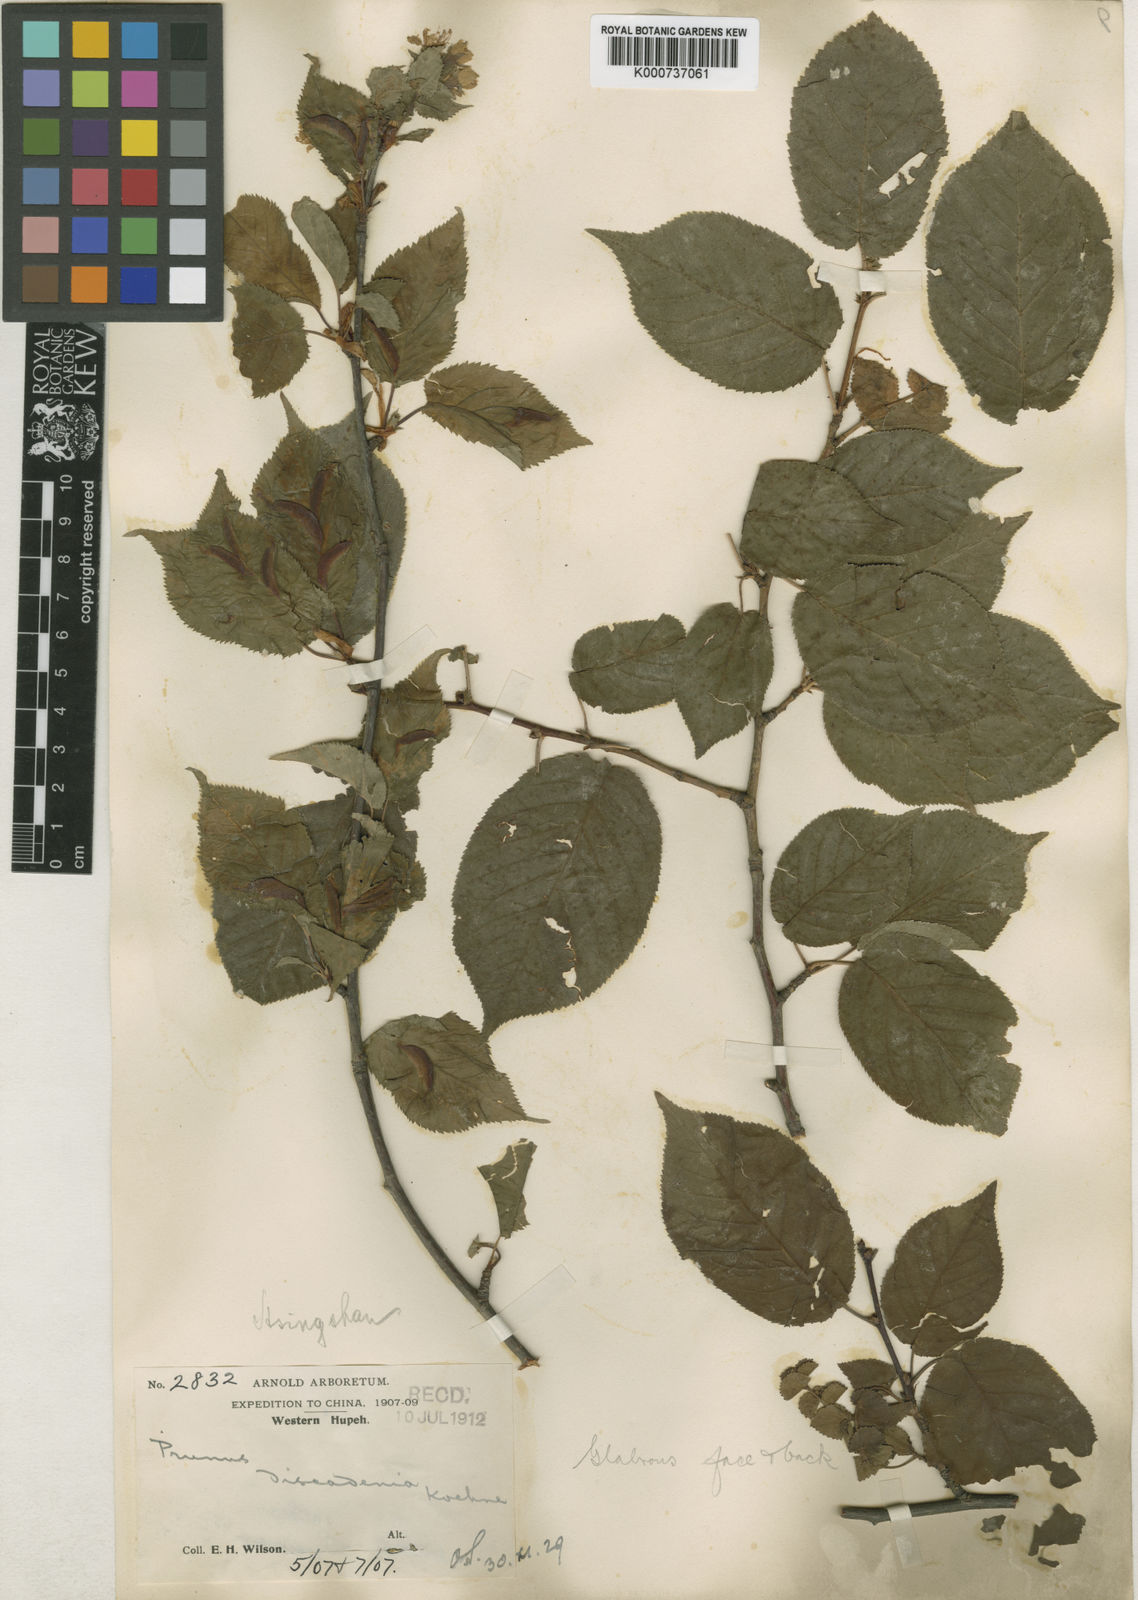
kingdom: Plantae
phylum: Tracheophyta
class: Magnoliopsida
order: Rosales
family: Rosaceae
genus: Prunus
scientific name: Prunus discadenia
